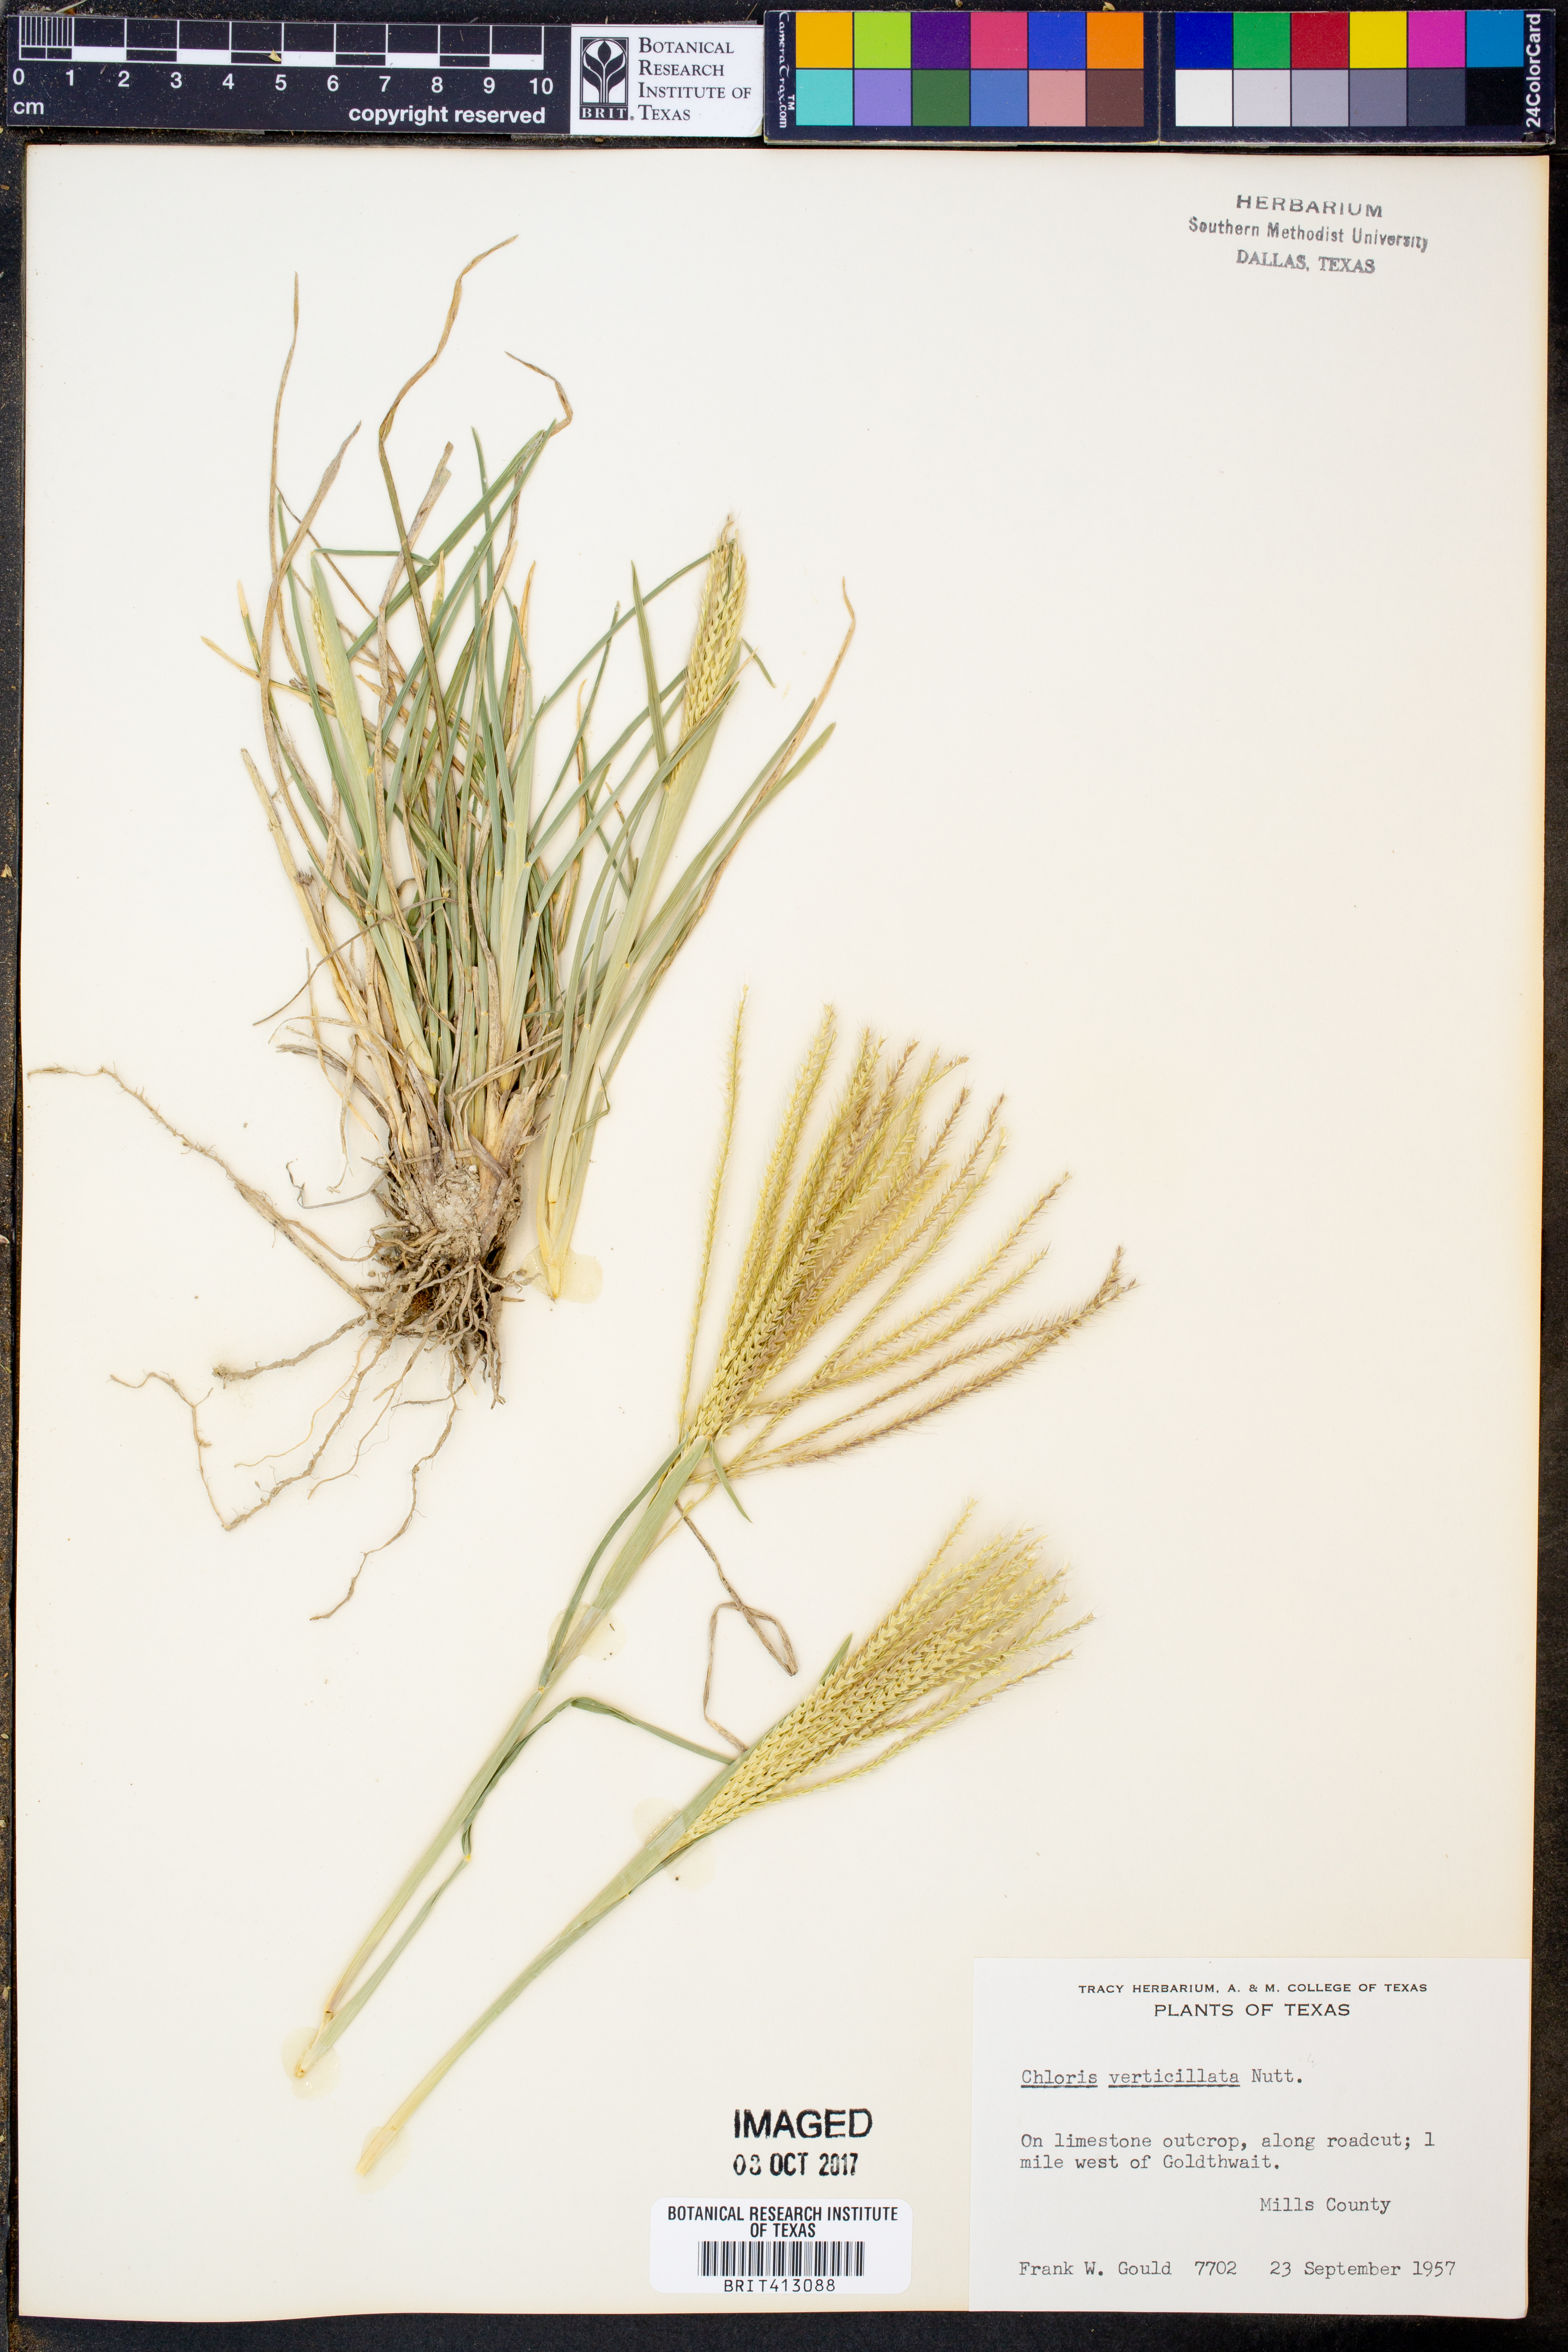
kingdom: Plantae
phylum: Tracheophyta
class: Liliopsida
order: Poales
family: Poaceae
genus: Chloris
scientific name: Chloris verticillata
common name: Tumble windmill grass
